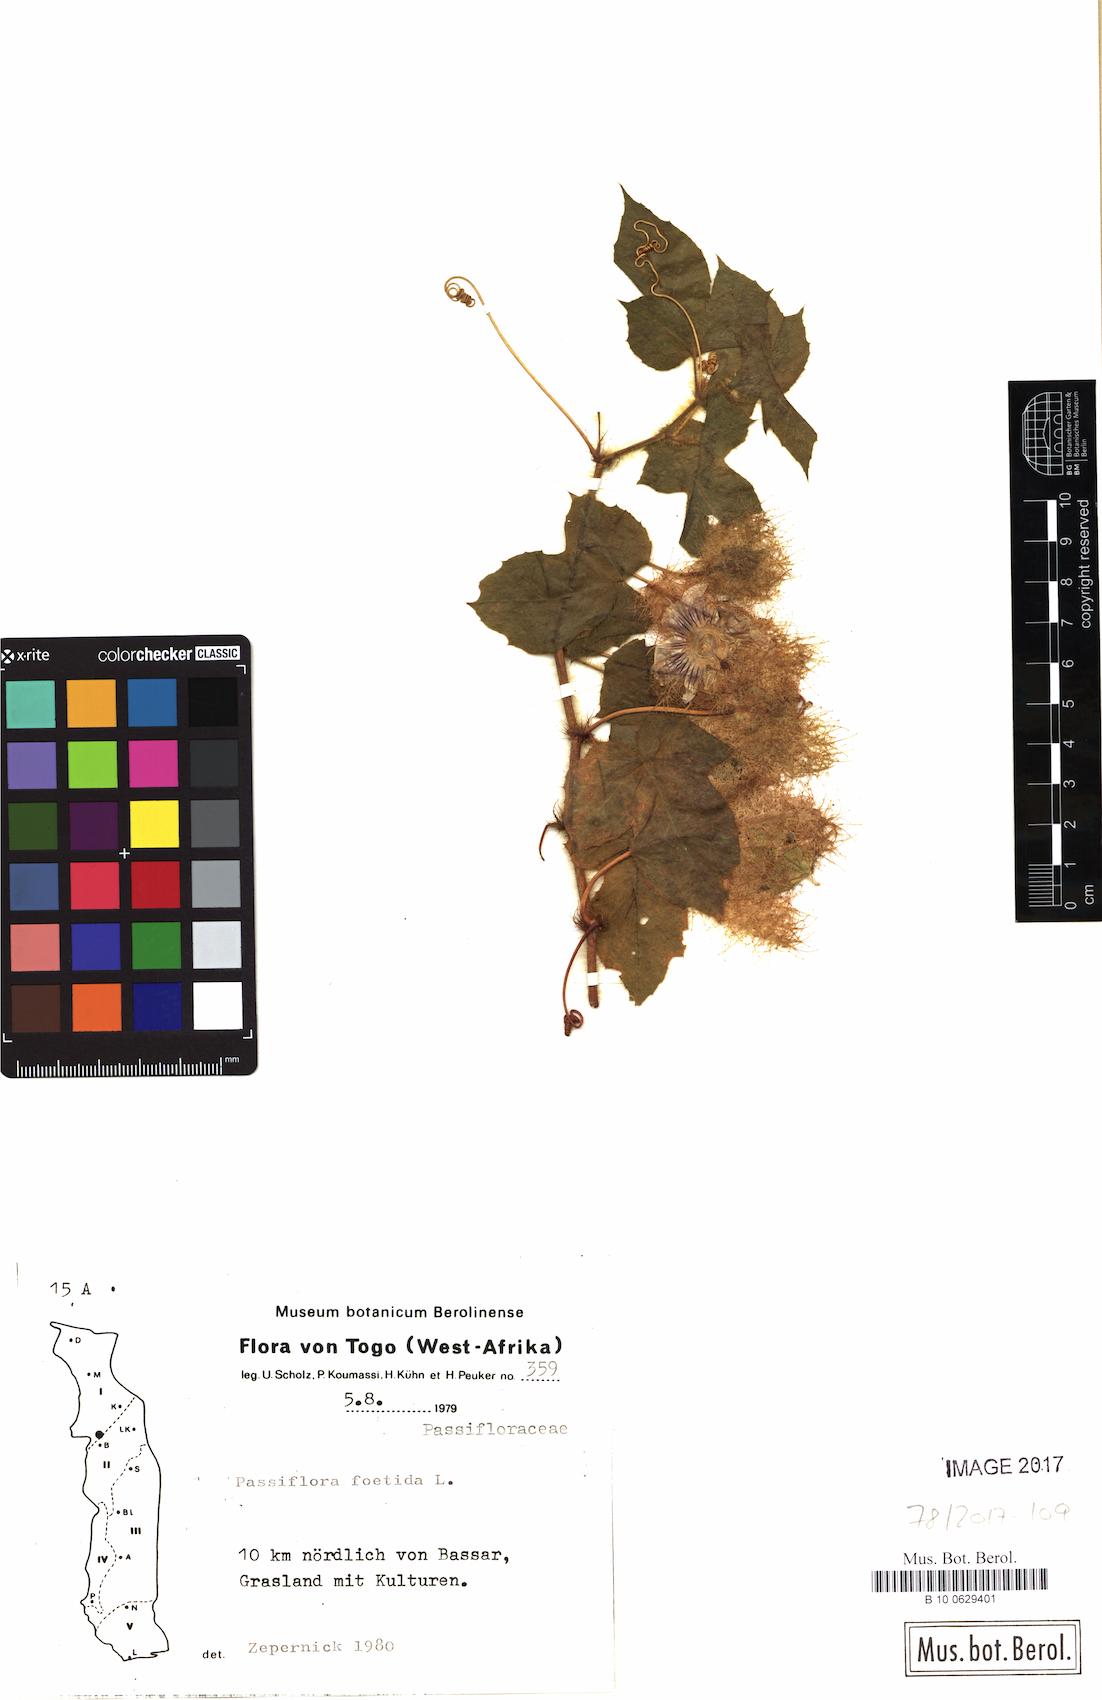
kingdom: Plantae
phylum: Tracheophyta
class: Magnoliopsida
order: Malpighiales
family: Passifloraceae
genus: Passiflora
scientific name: Passiflora foetida
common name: Fetid passionflower
